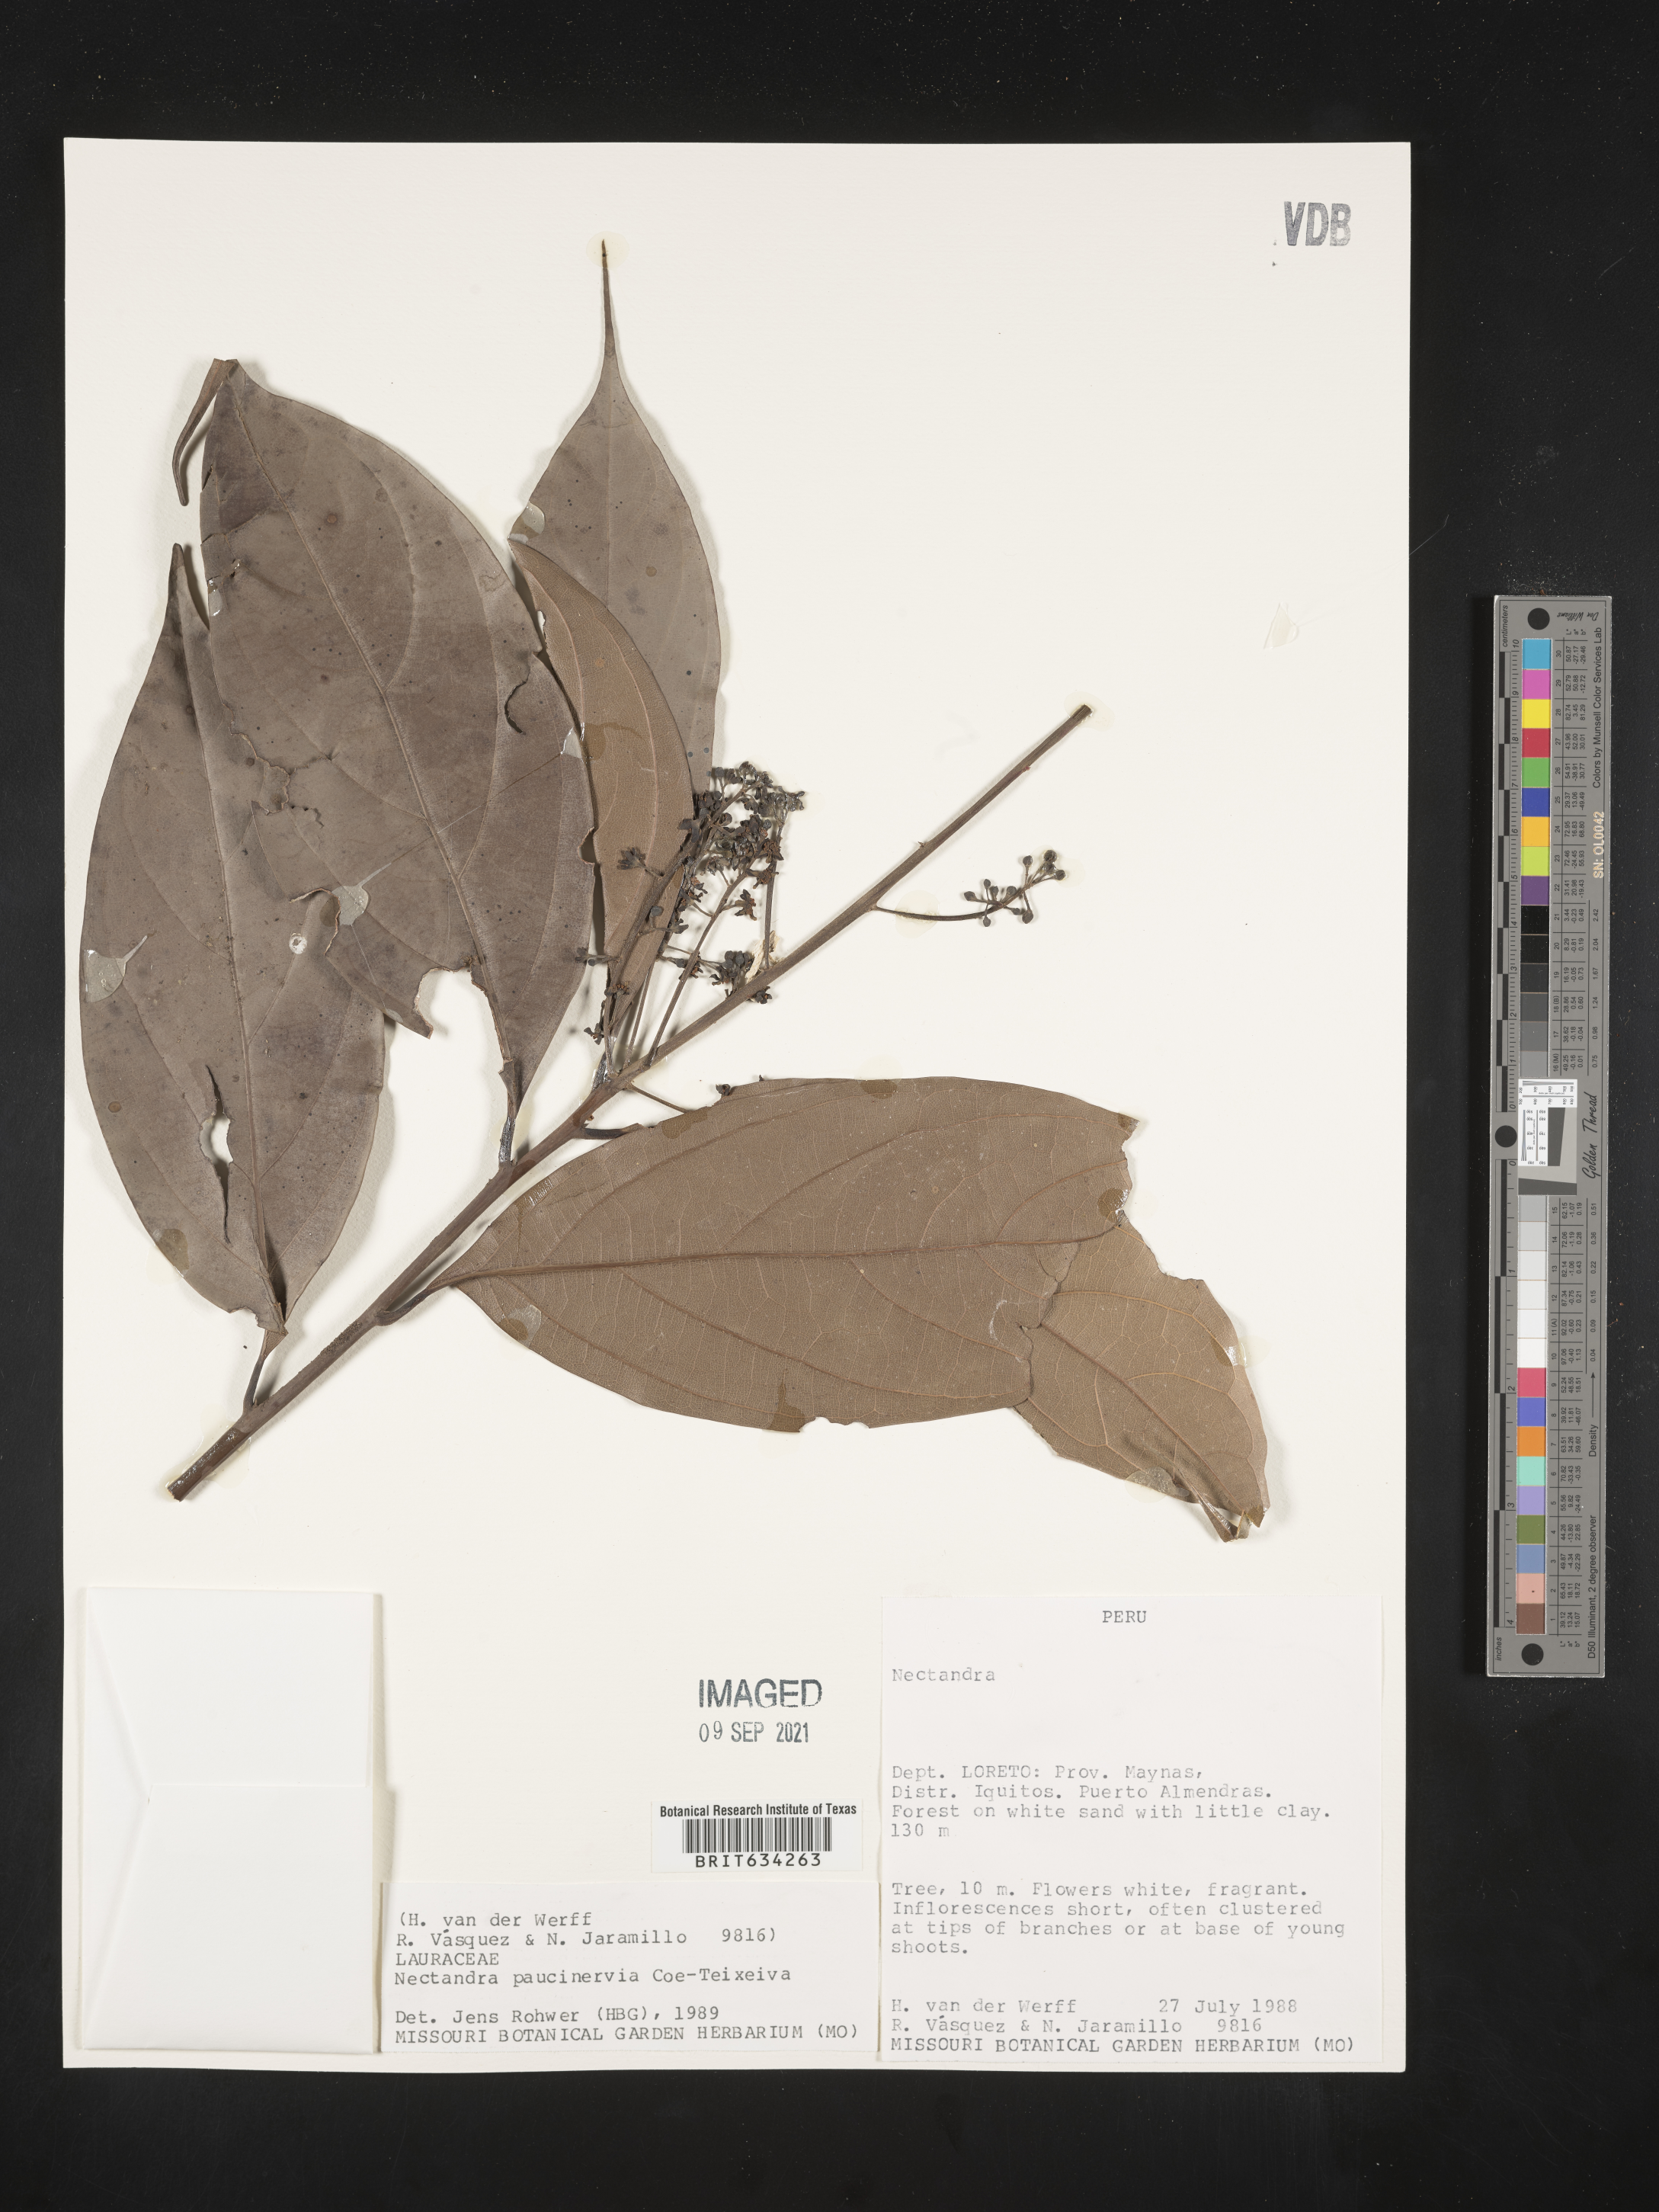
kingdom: Plantae
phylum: Tracheophyta
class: Magnoliopsida
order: Laurales
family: Lauraceae
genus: Nectandra
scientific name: Nectandra
